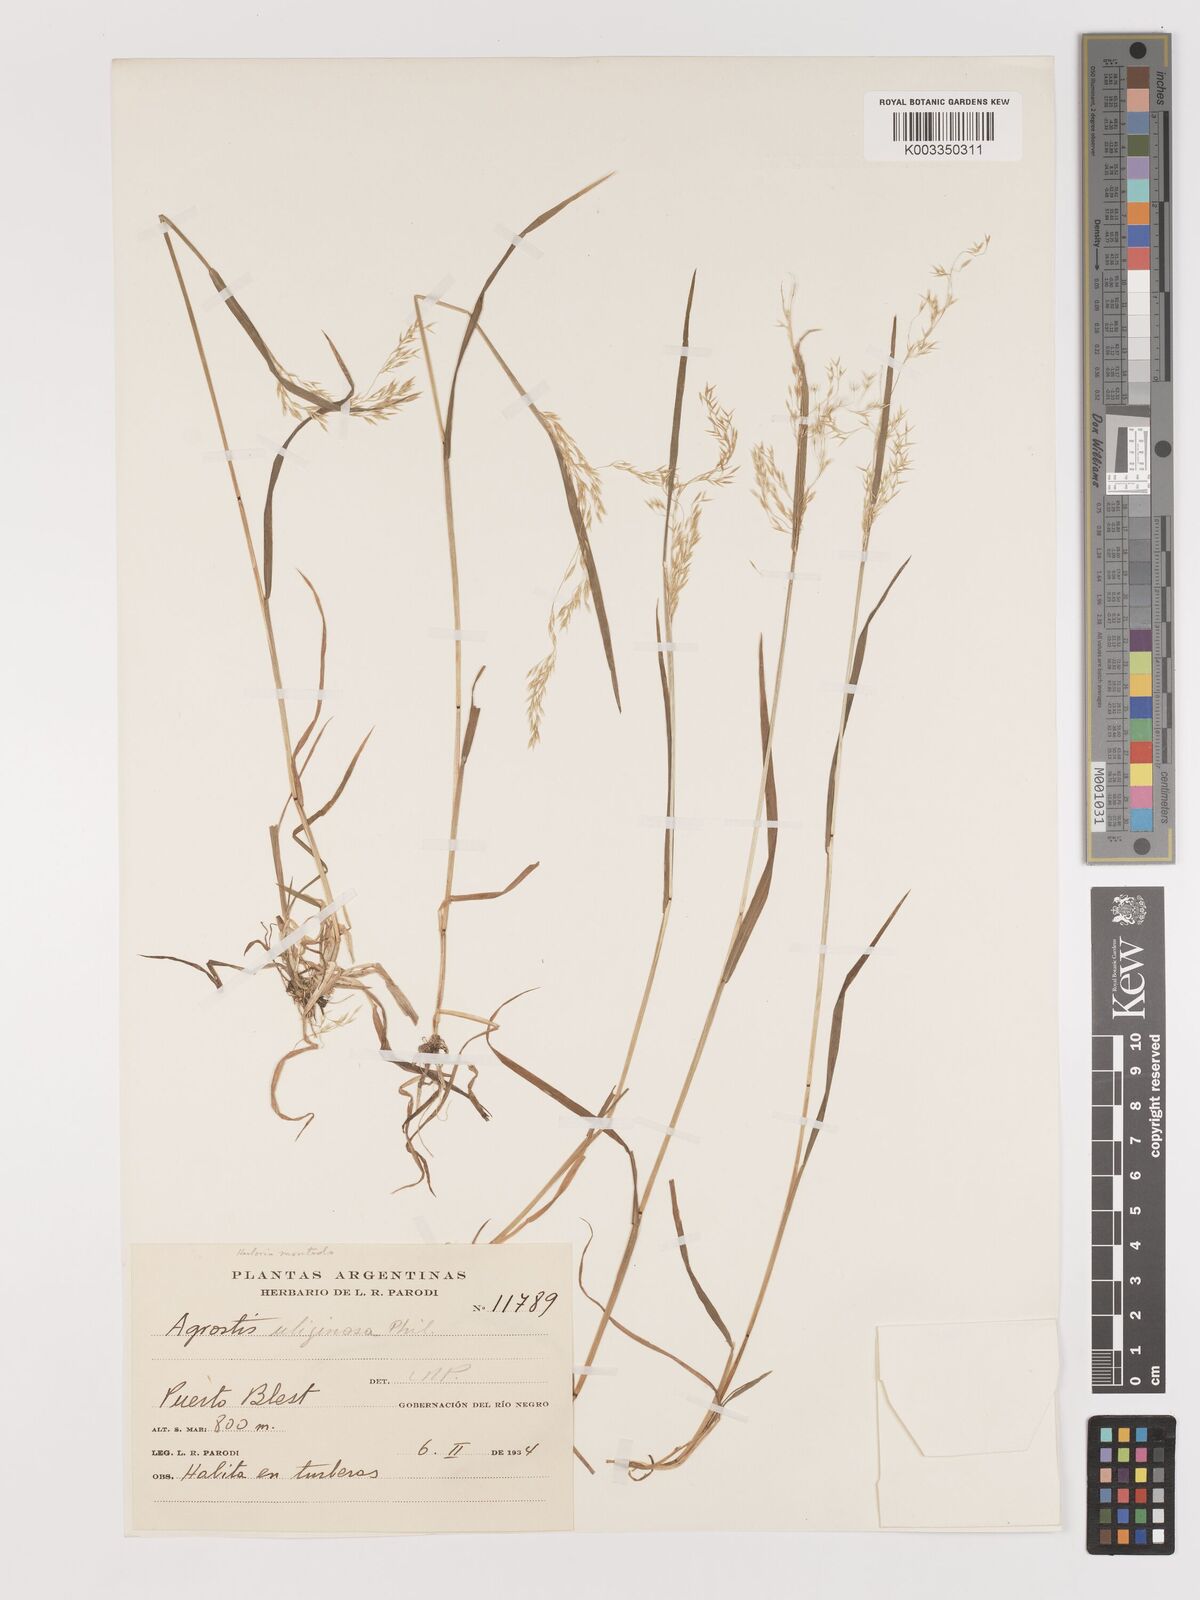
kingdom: Plantae
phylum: Tracheophyta
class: Liliopsida
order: Poales
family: Poaceae
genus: Agrostis
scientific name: Agrostis uliginosa
